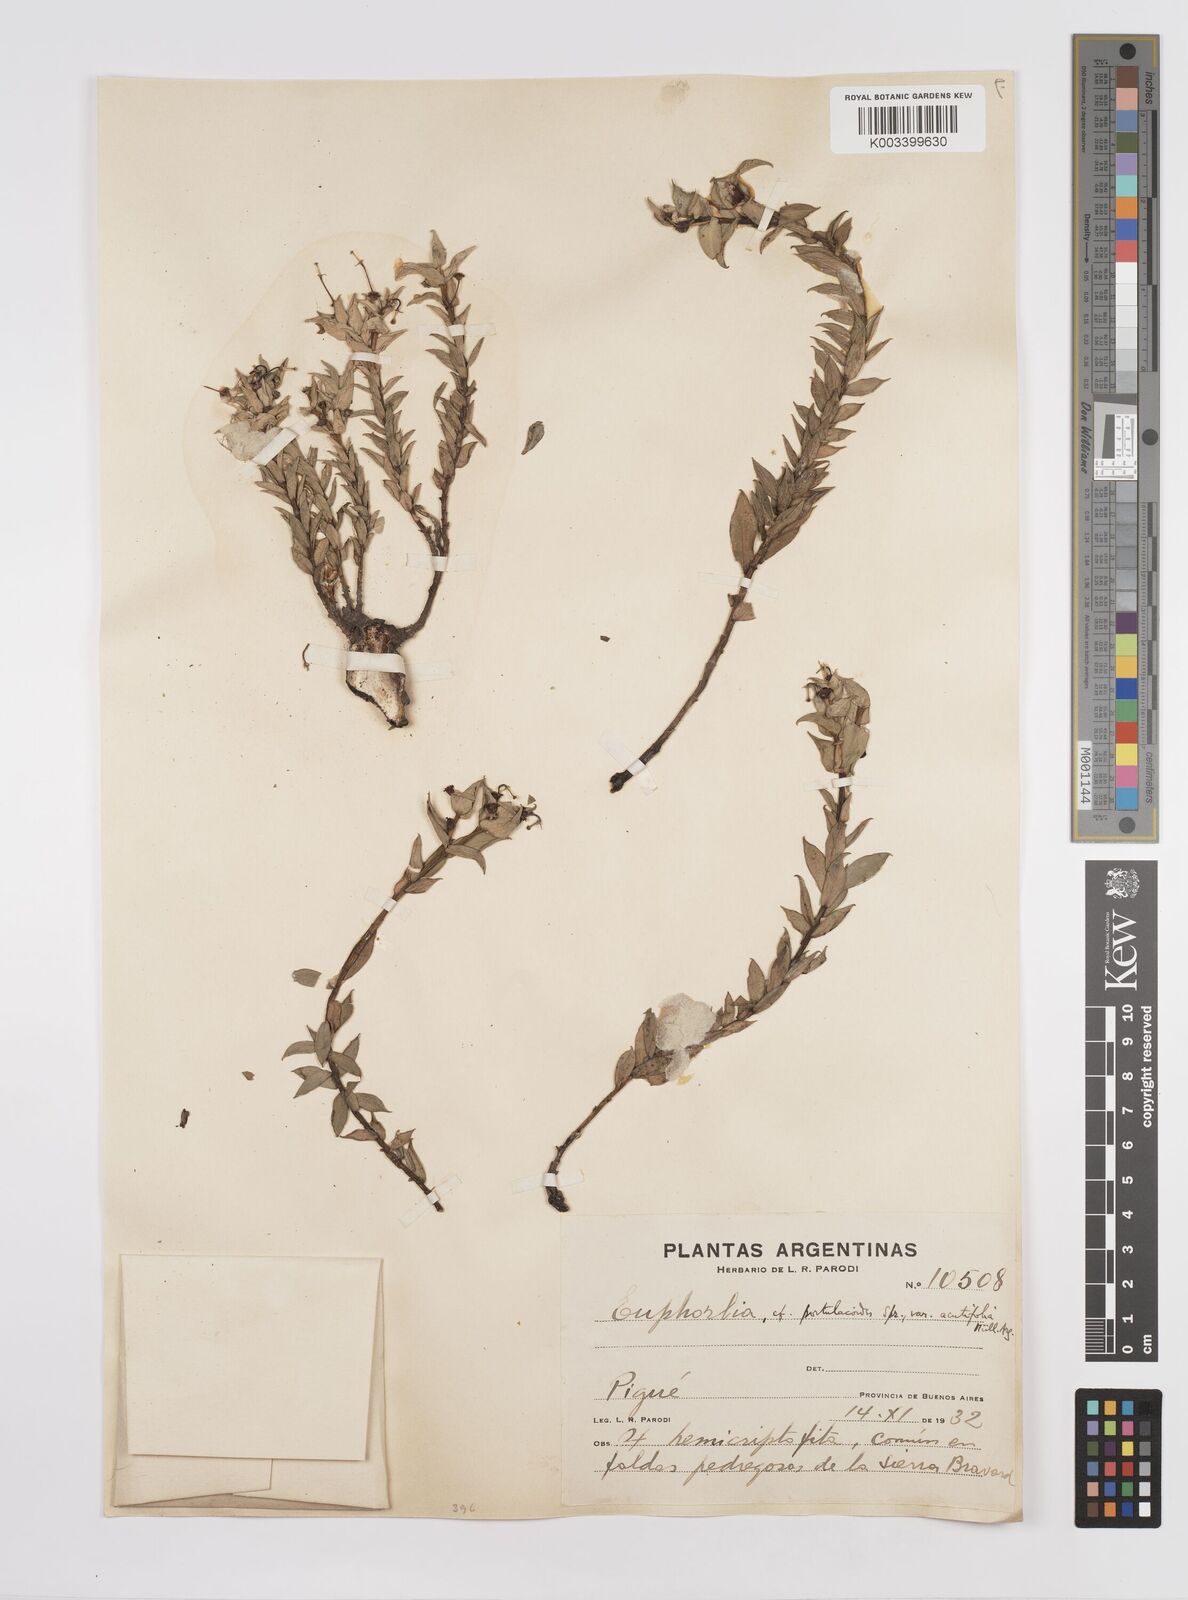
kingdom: Plantae
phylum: Tracheophyta
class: Magnoliopsida
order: Malpighiales
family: Euphorbiaceae
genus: Euphorbia
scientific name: Euphorbia portulacoides
